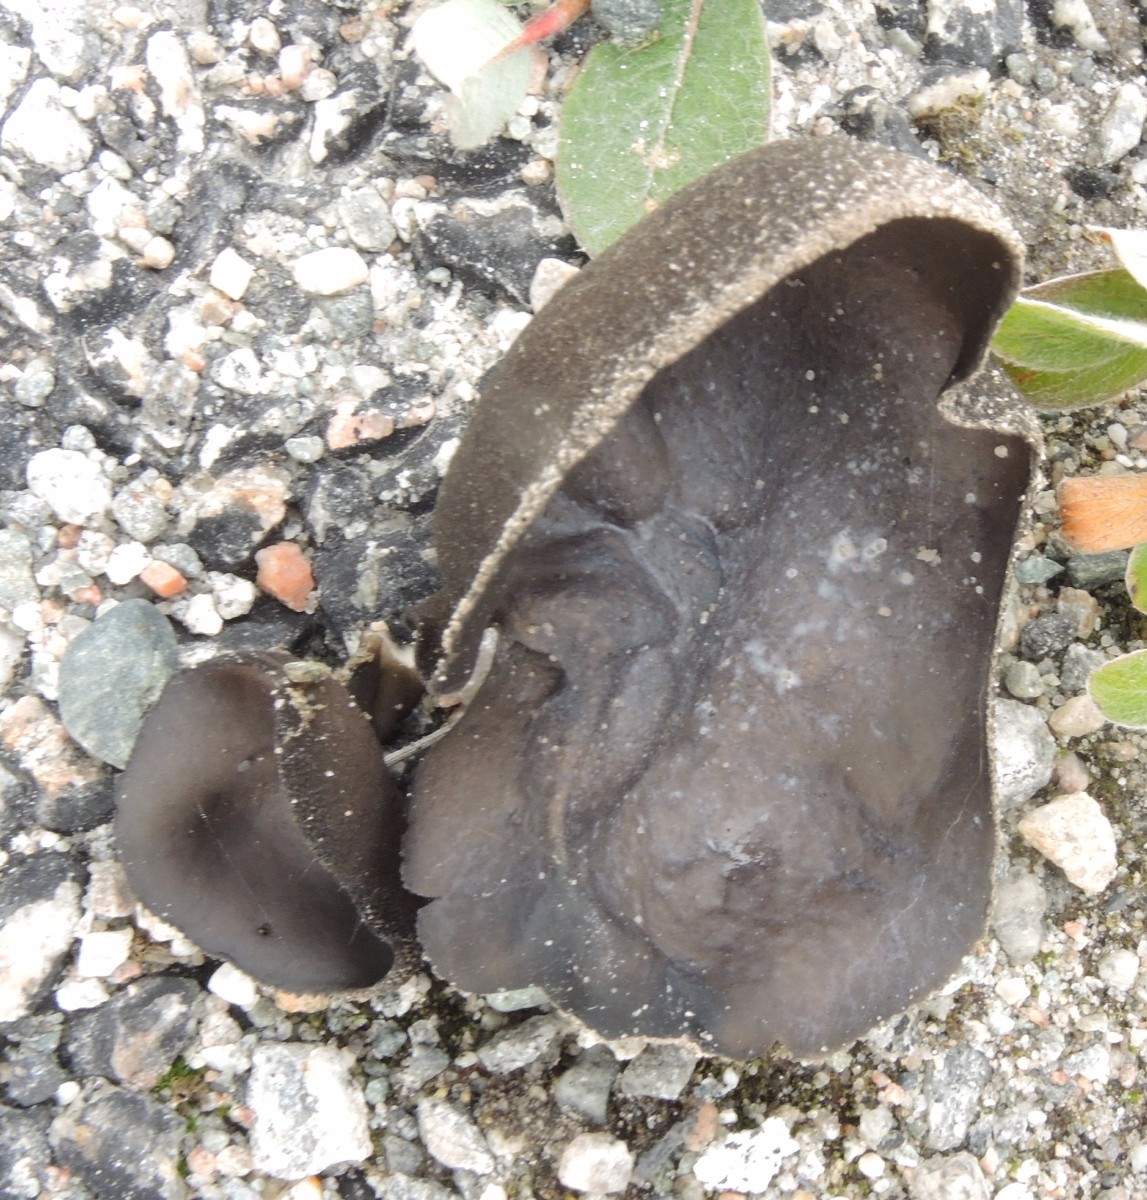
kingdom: Fungi
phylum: Ascomycota
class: Pezizomycetes
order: Pezizales
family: Helvellaceae
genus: Helvella
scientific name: Helvella
